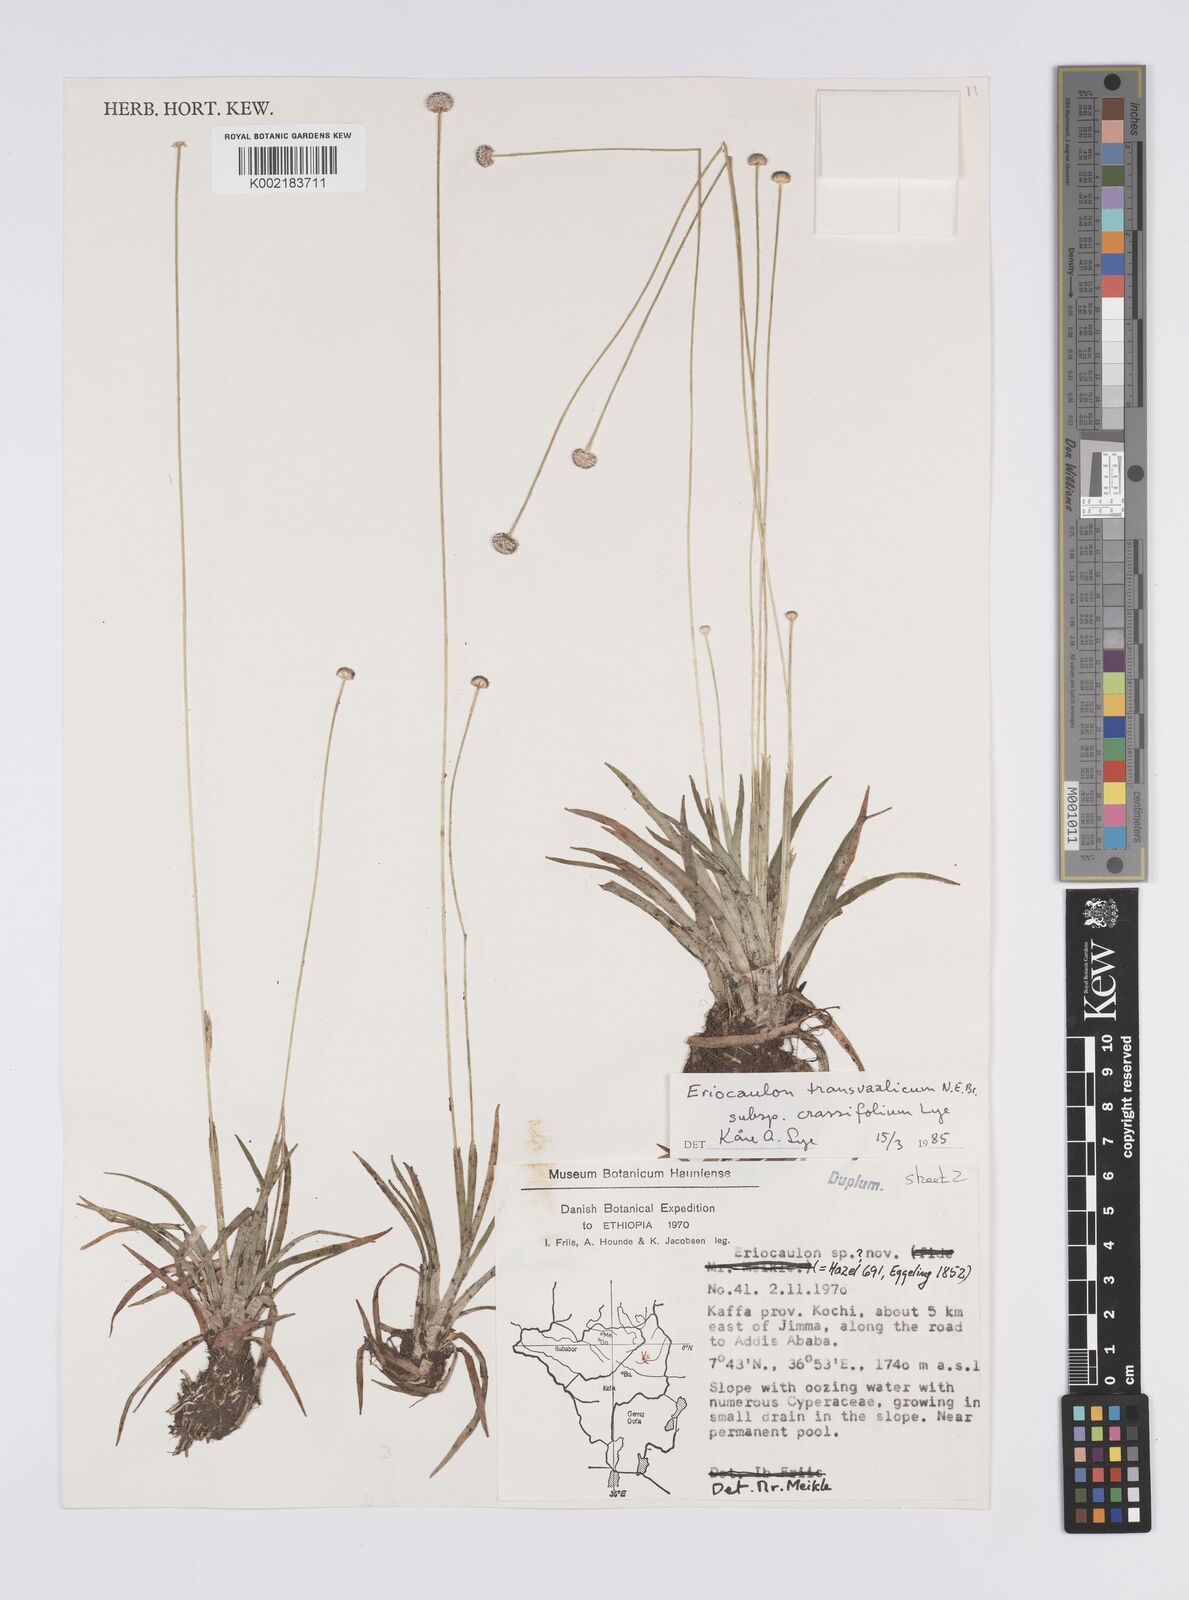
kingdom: Plantae
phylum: Tracheophyta
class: Liliopsida
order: Poales
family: Eriocaulaceae
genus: Eriocaulon
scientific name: Eriocaulon crassiusculum
